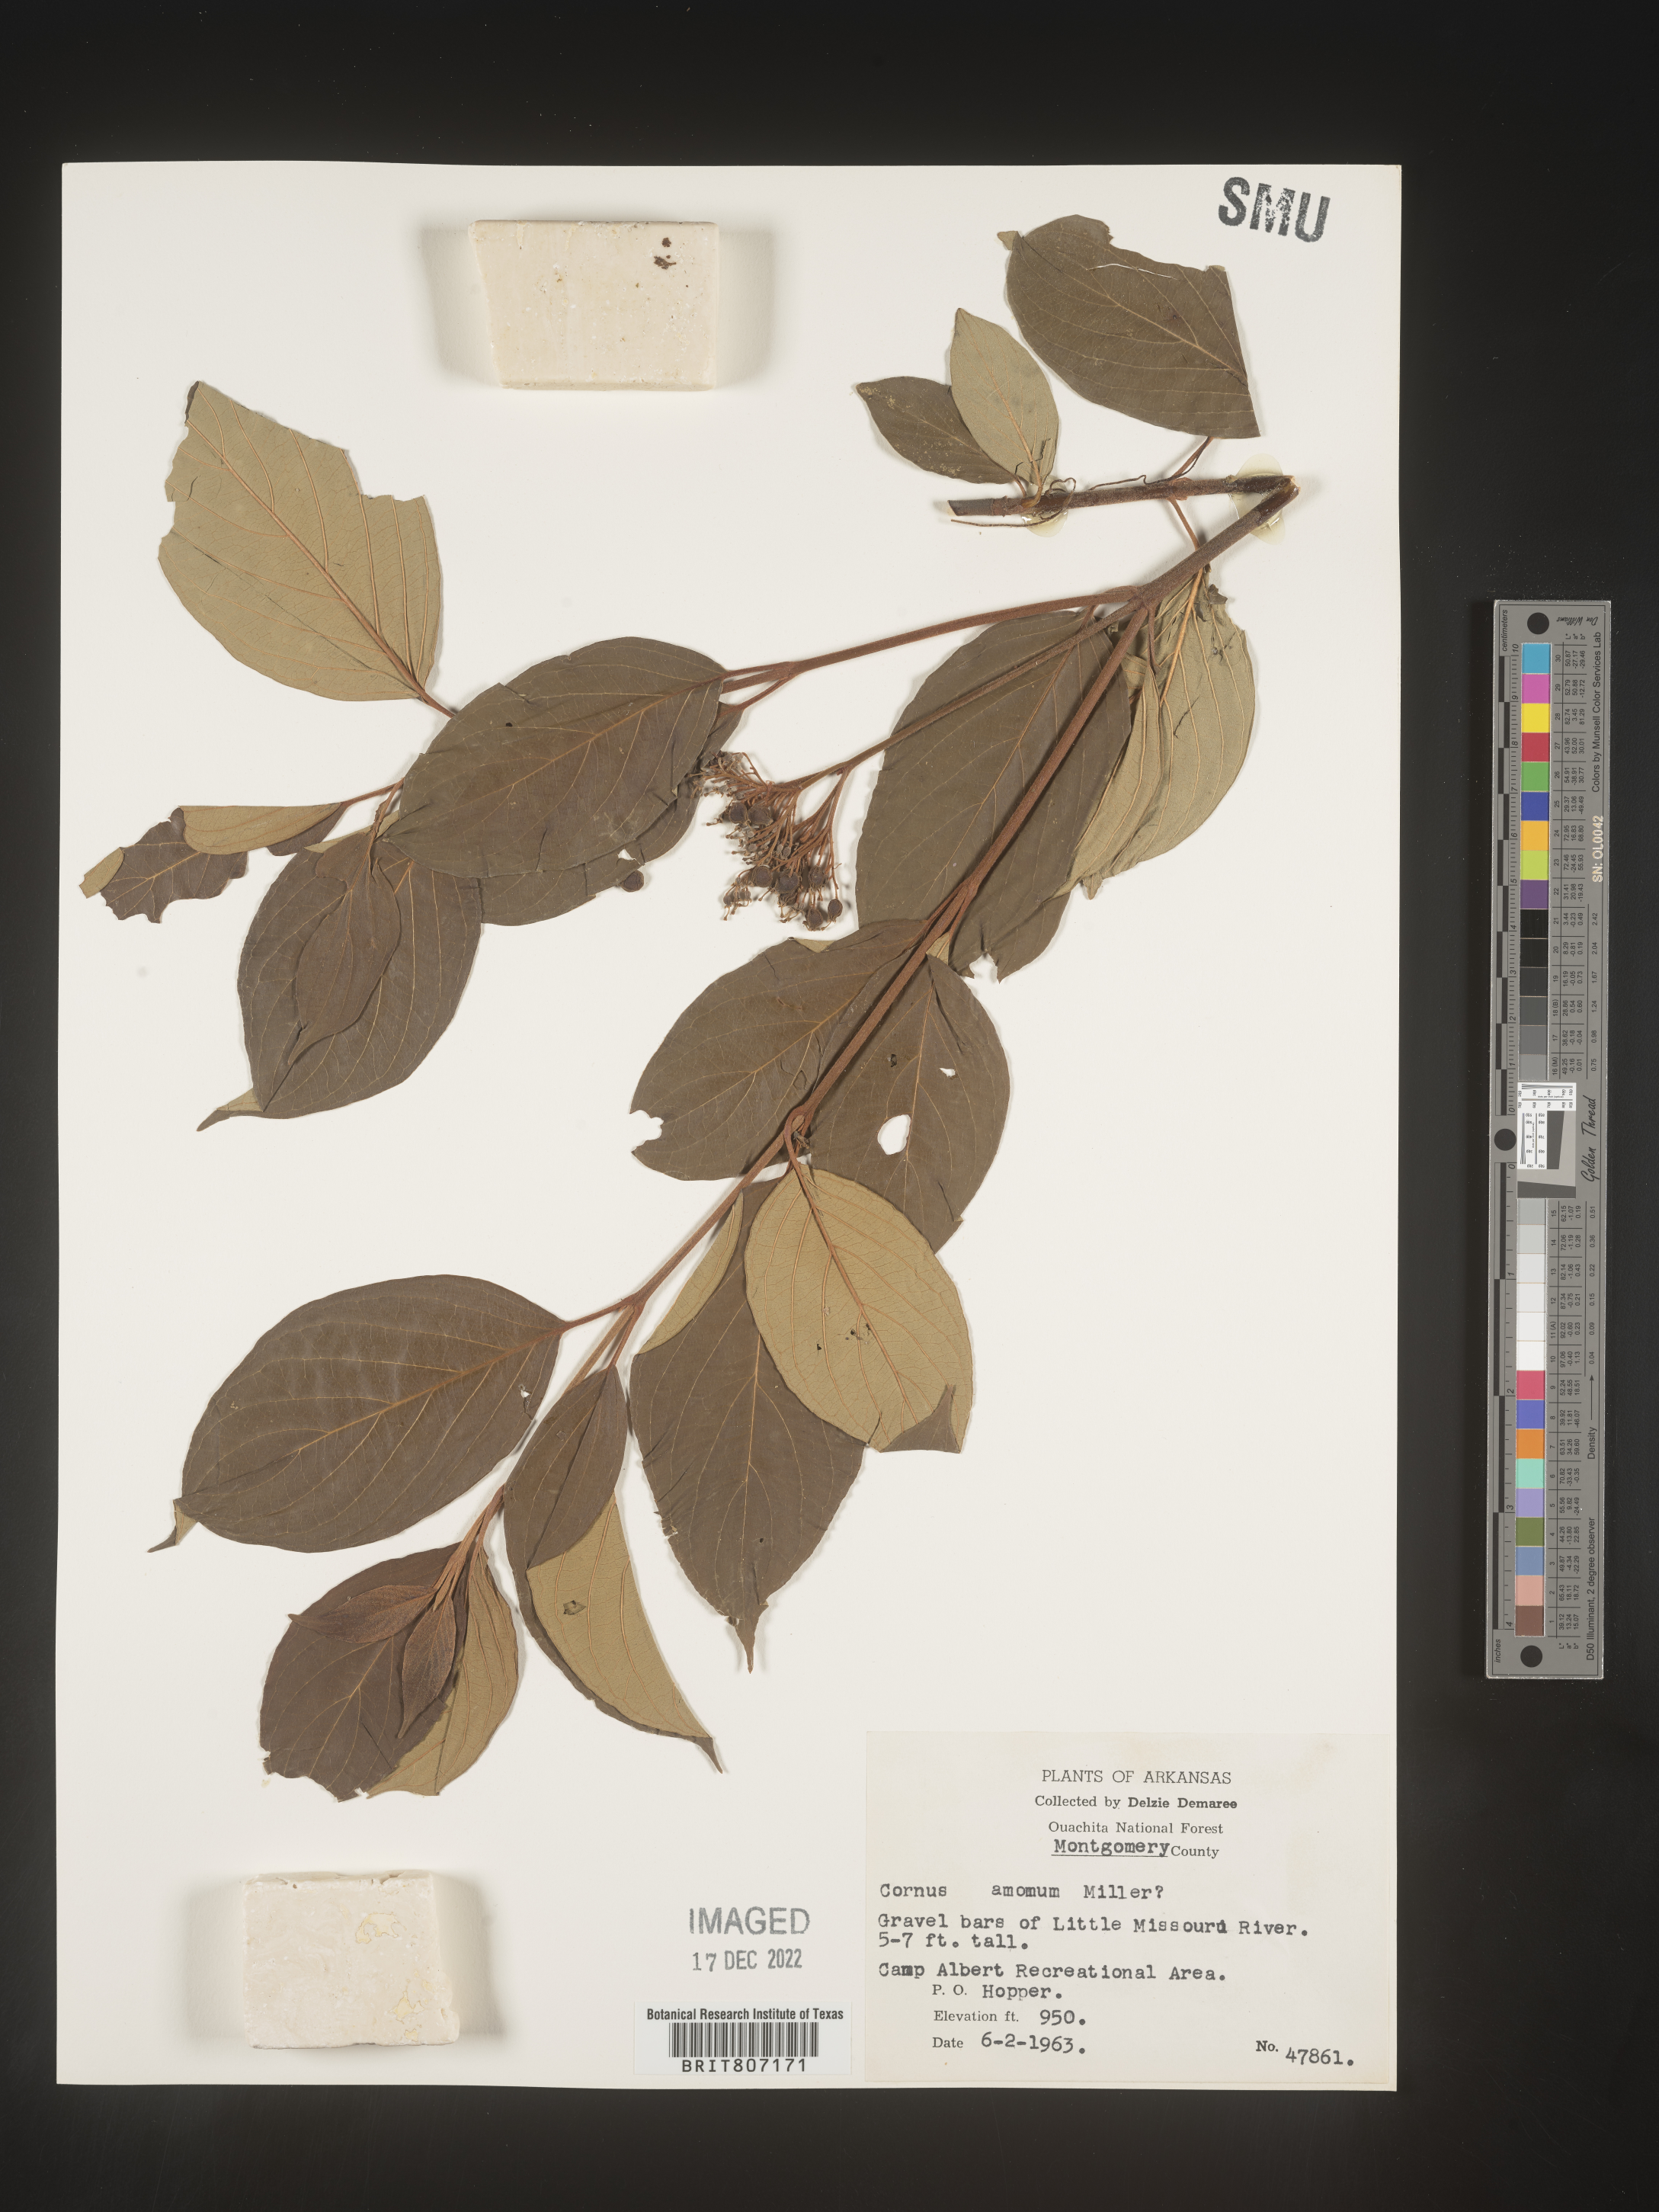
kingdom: Plantae
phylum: Tracheophyta
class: Magnoliopsida
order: Cornales
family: Cornaceae
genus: Cornus
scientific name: Cornus amomum
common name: Silky dogwood
